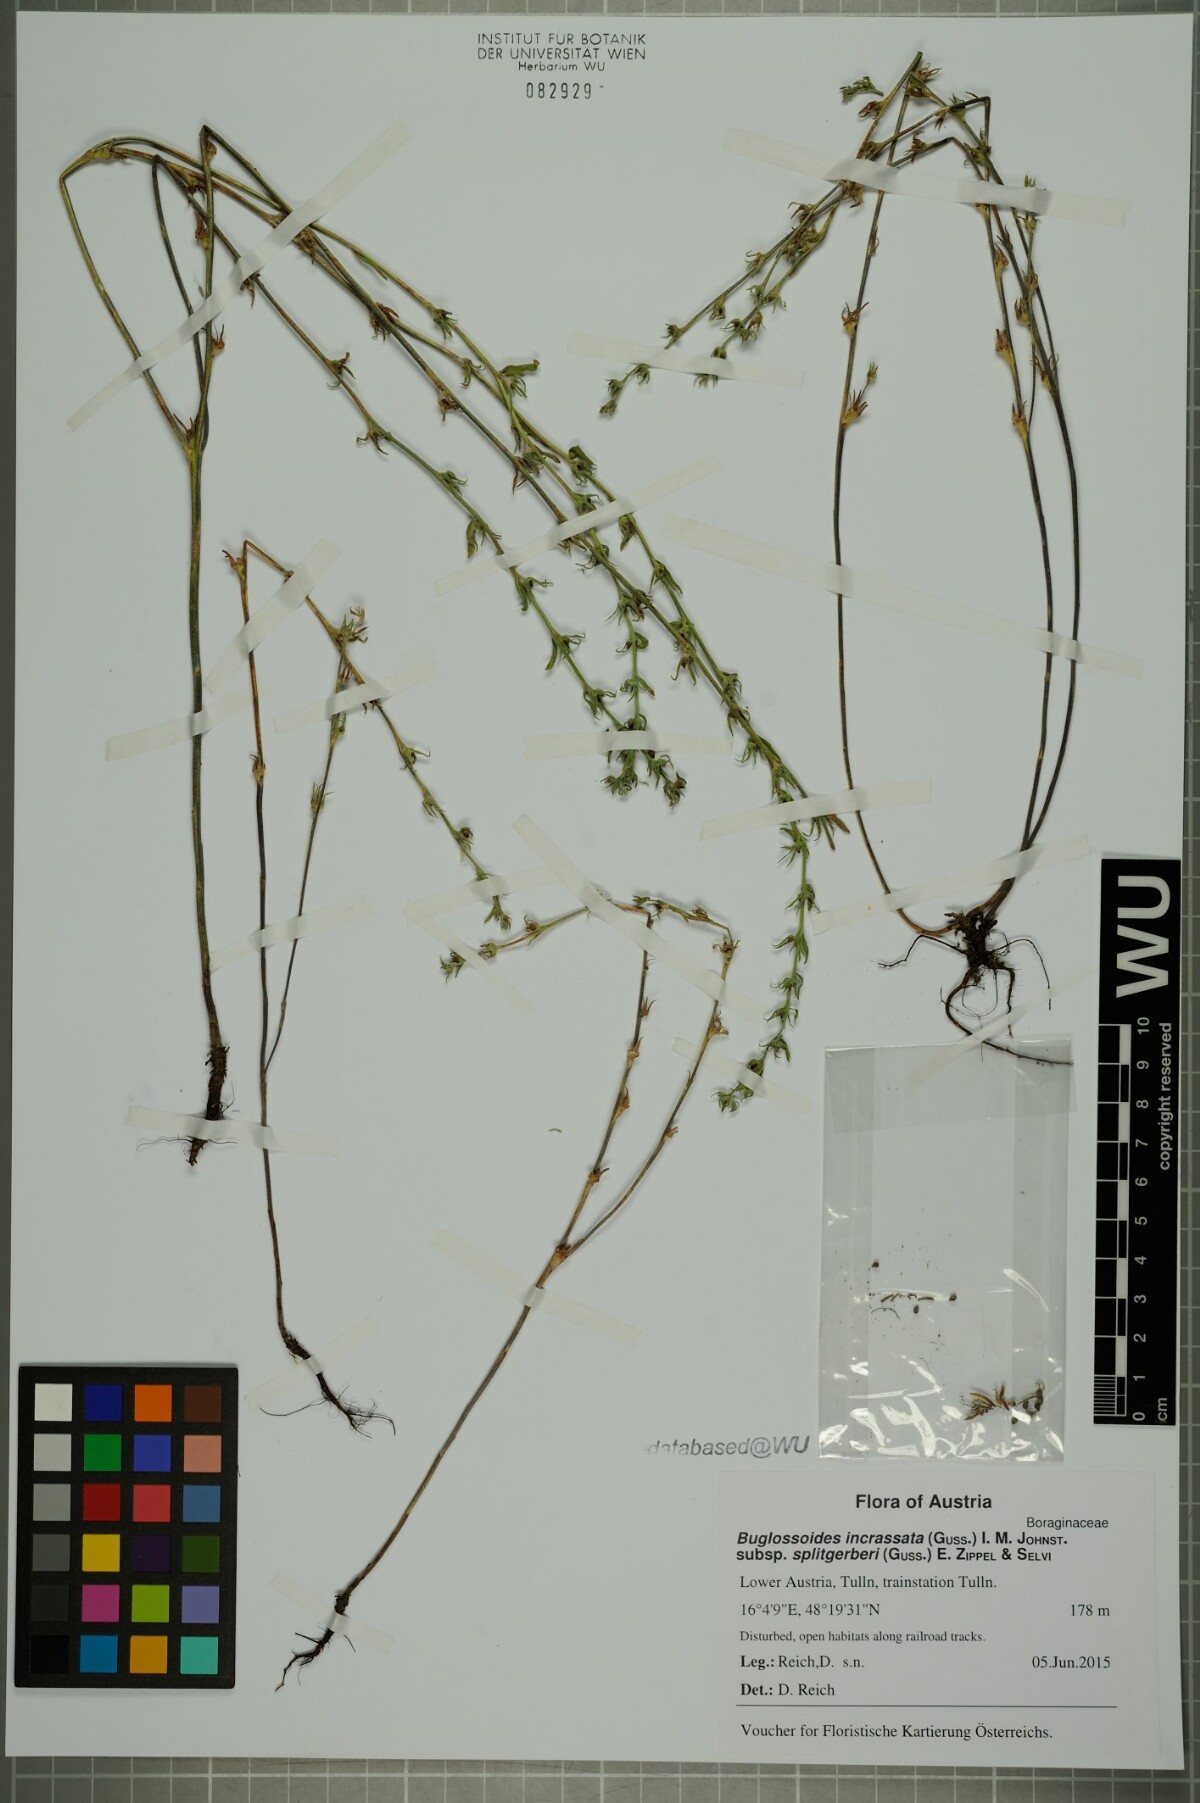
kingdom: Plantae
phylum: Tracheophyta
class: Magnoliopsida
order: Boraginales
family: Boraginaceae
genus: Buglossoides
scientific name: Buglossoides incrassata
